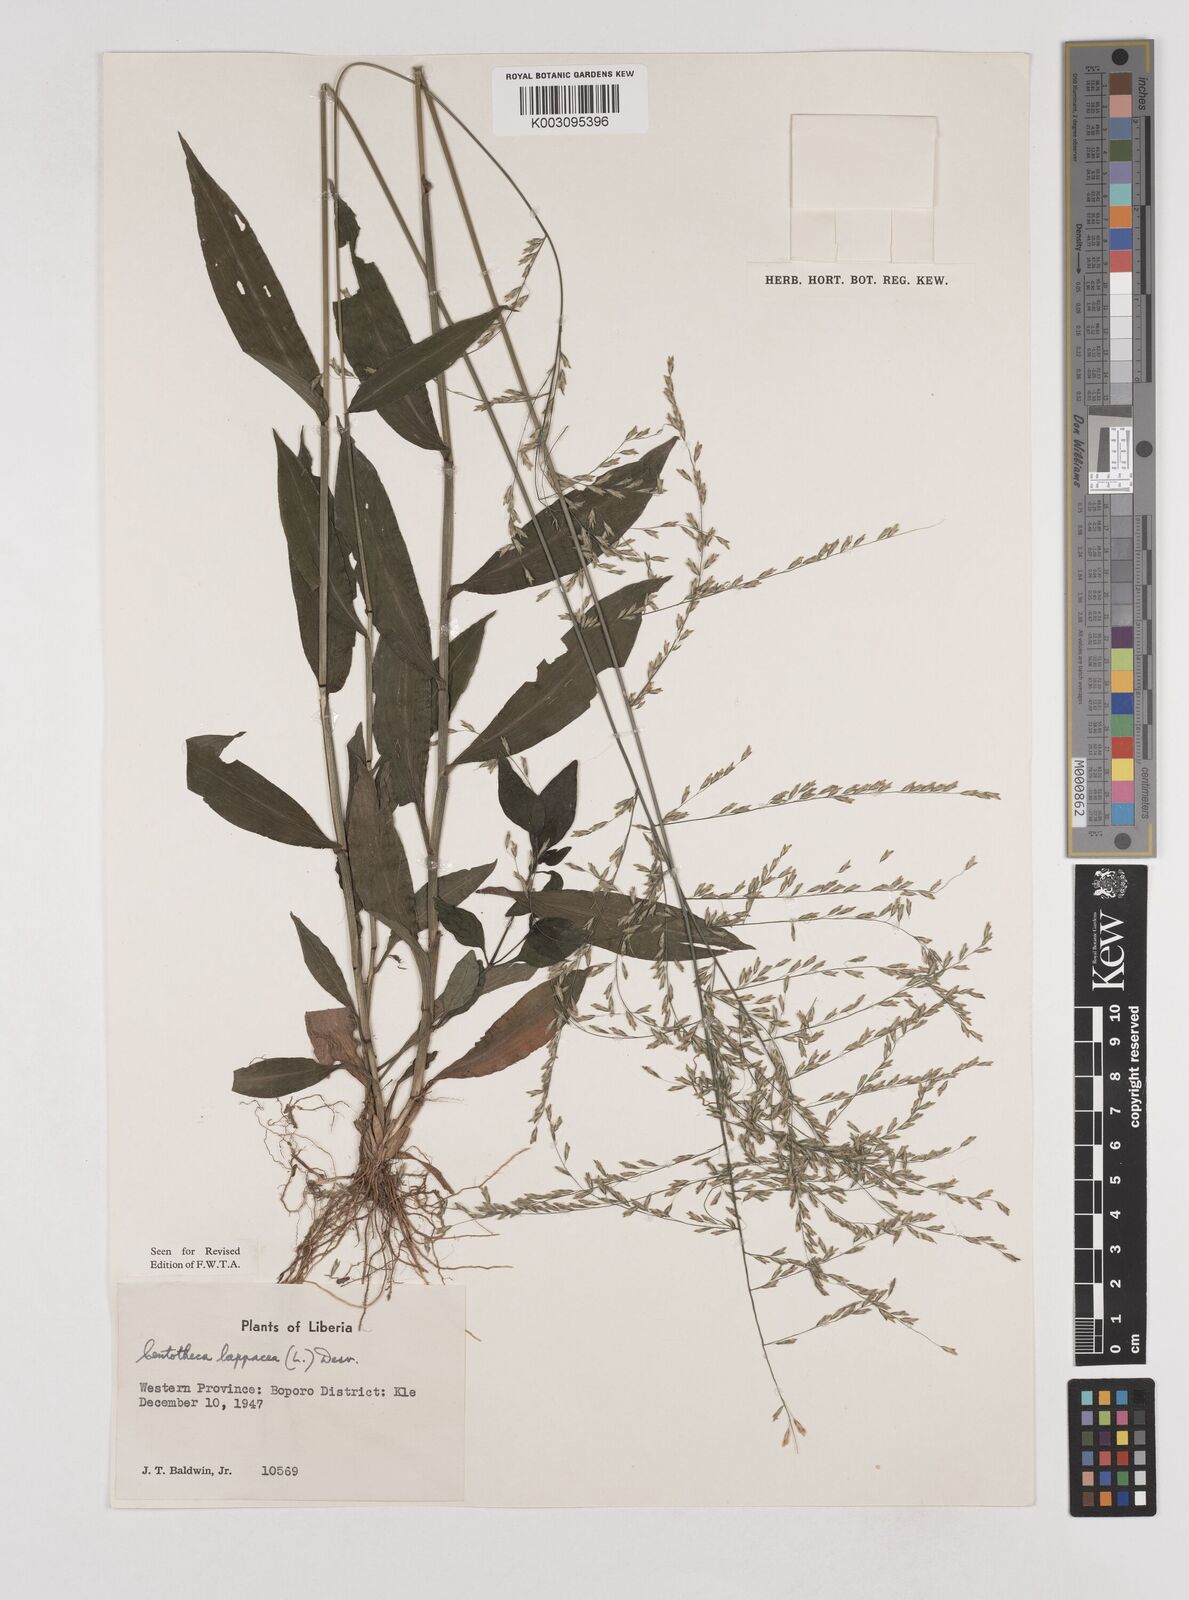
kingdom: Plantae
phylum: Tracheophyta
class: Liliopsida
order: Poales
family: Poaceae
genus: Centotheca
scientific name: Centotheca lappacea
